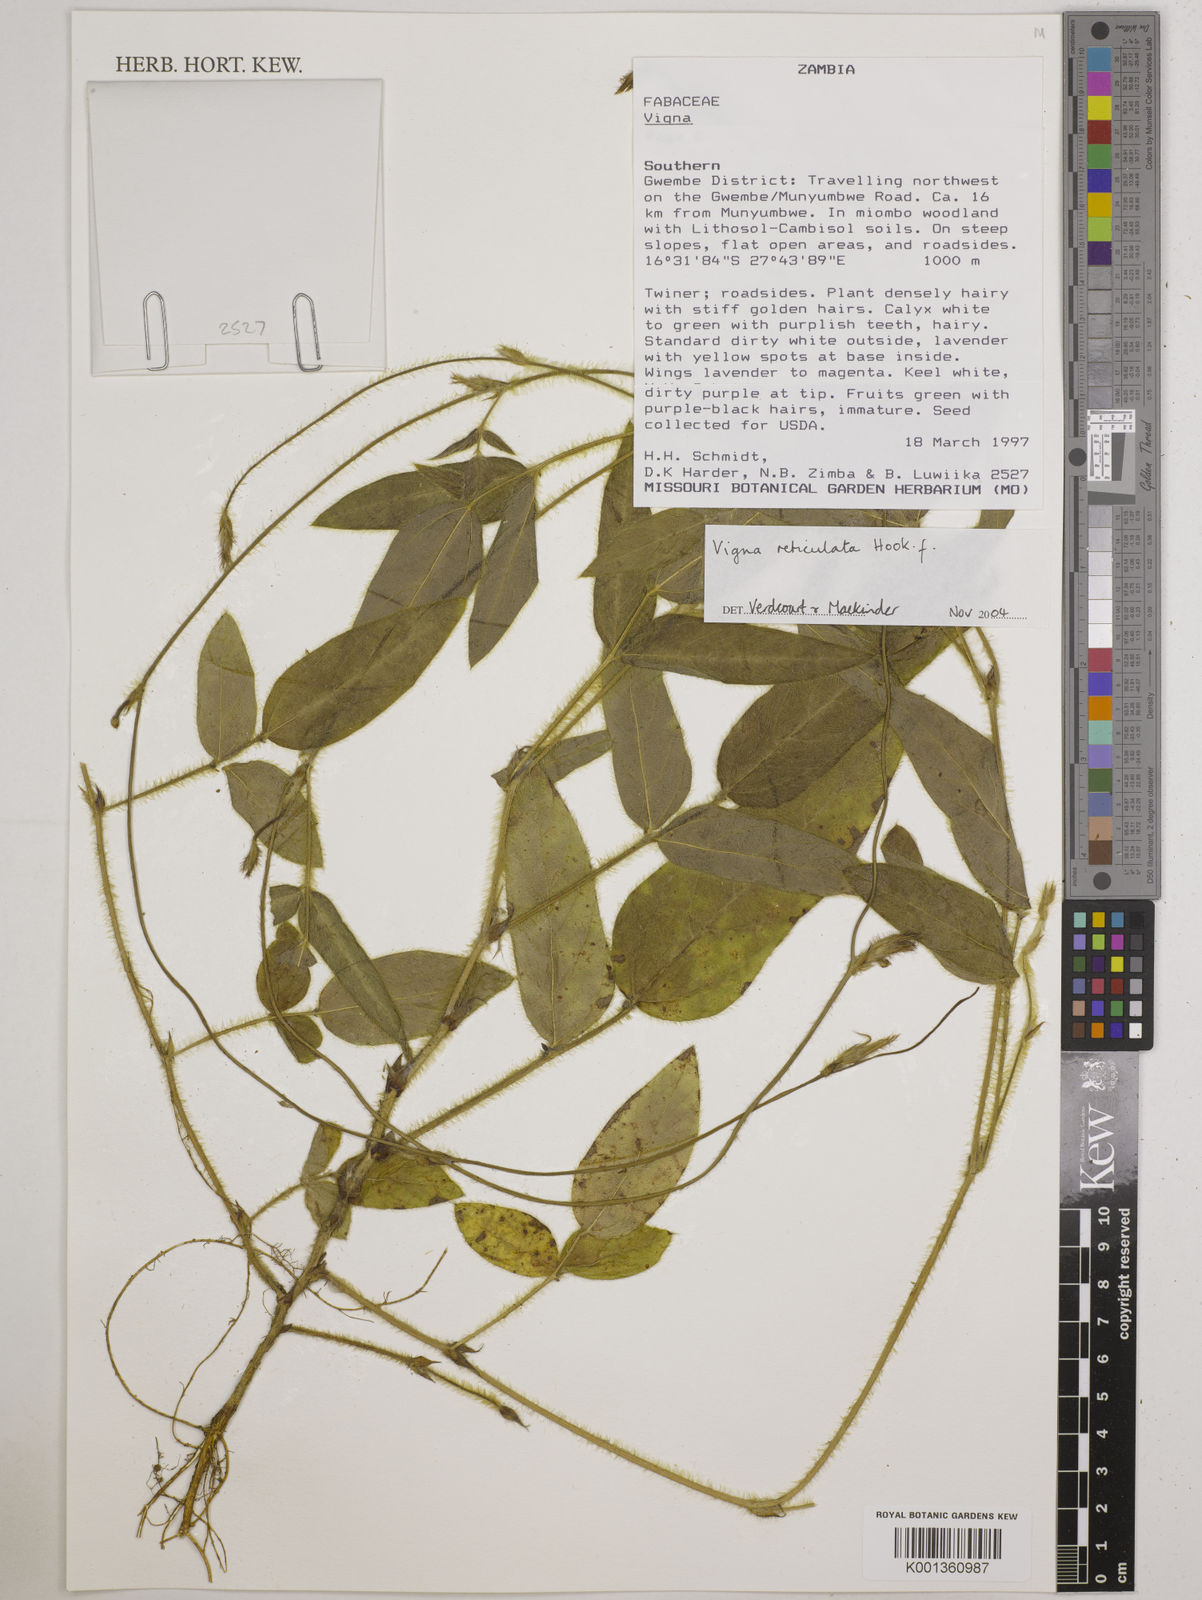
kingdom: Plantae
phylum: Tracheophyta
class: Magnoliopsida
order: Fabales
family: Fabaceae
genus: Vigna
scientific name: Vigna reticulata
